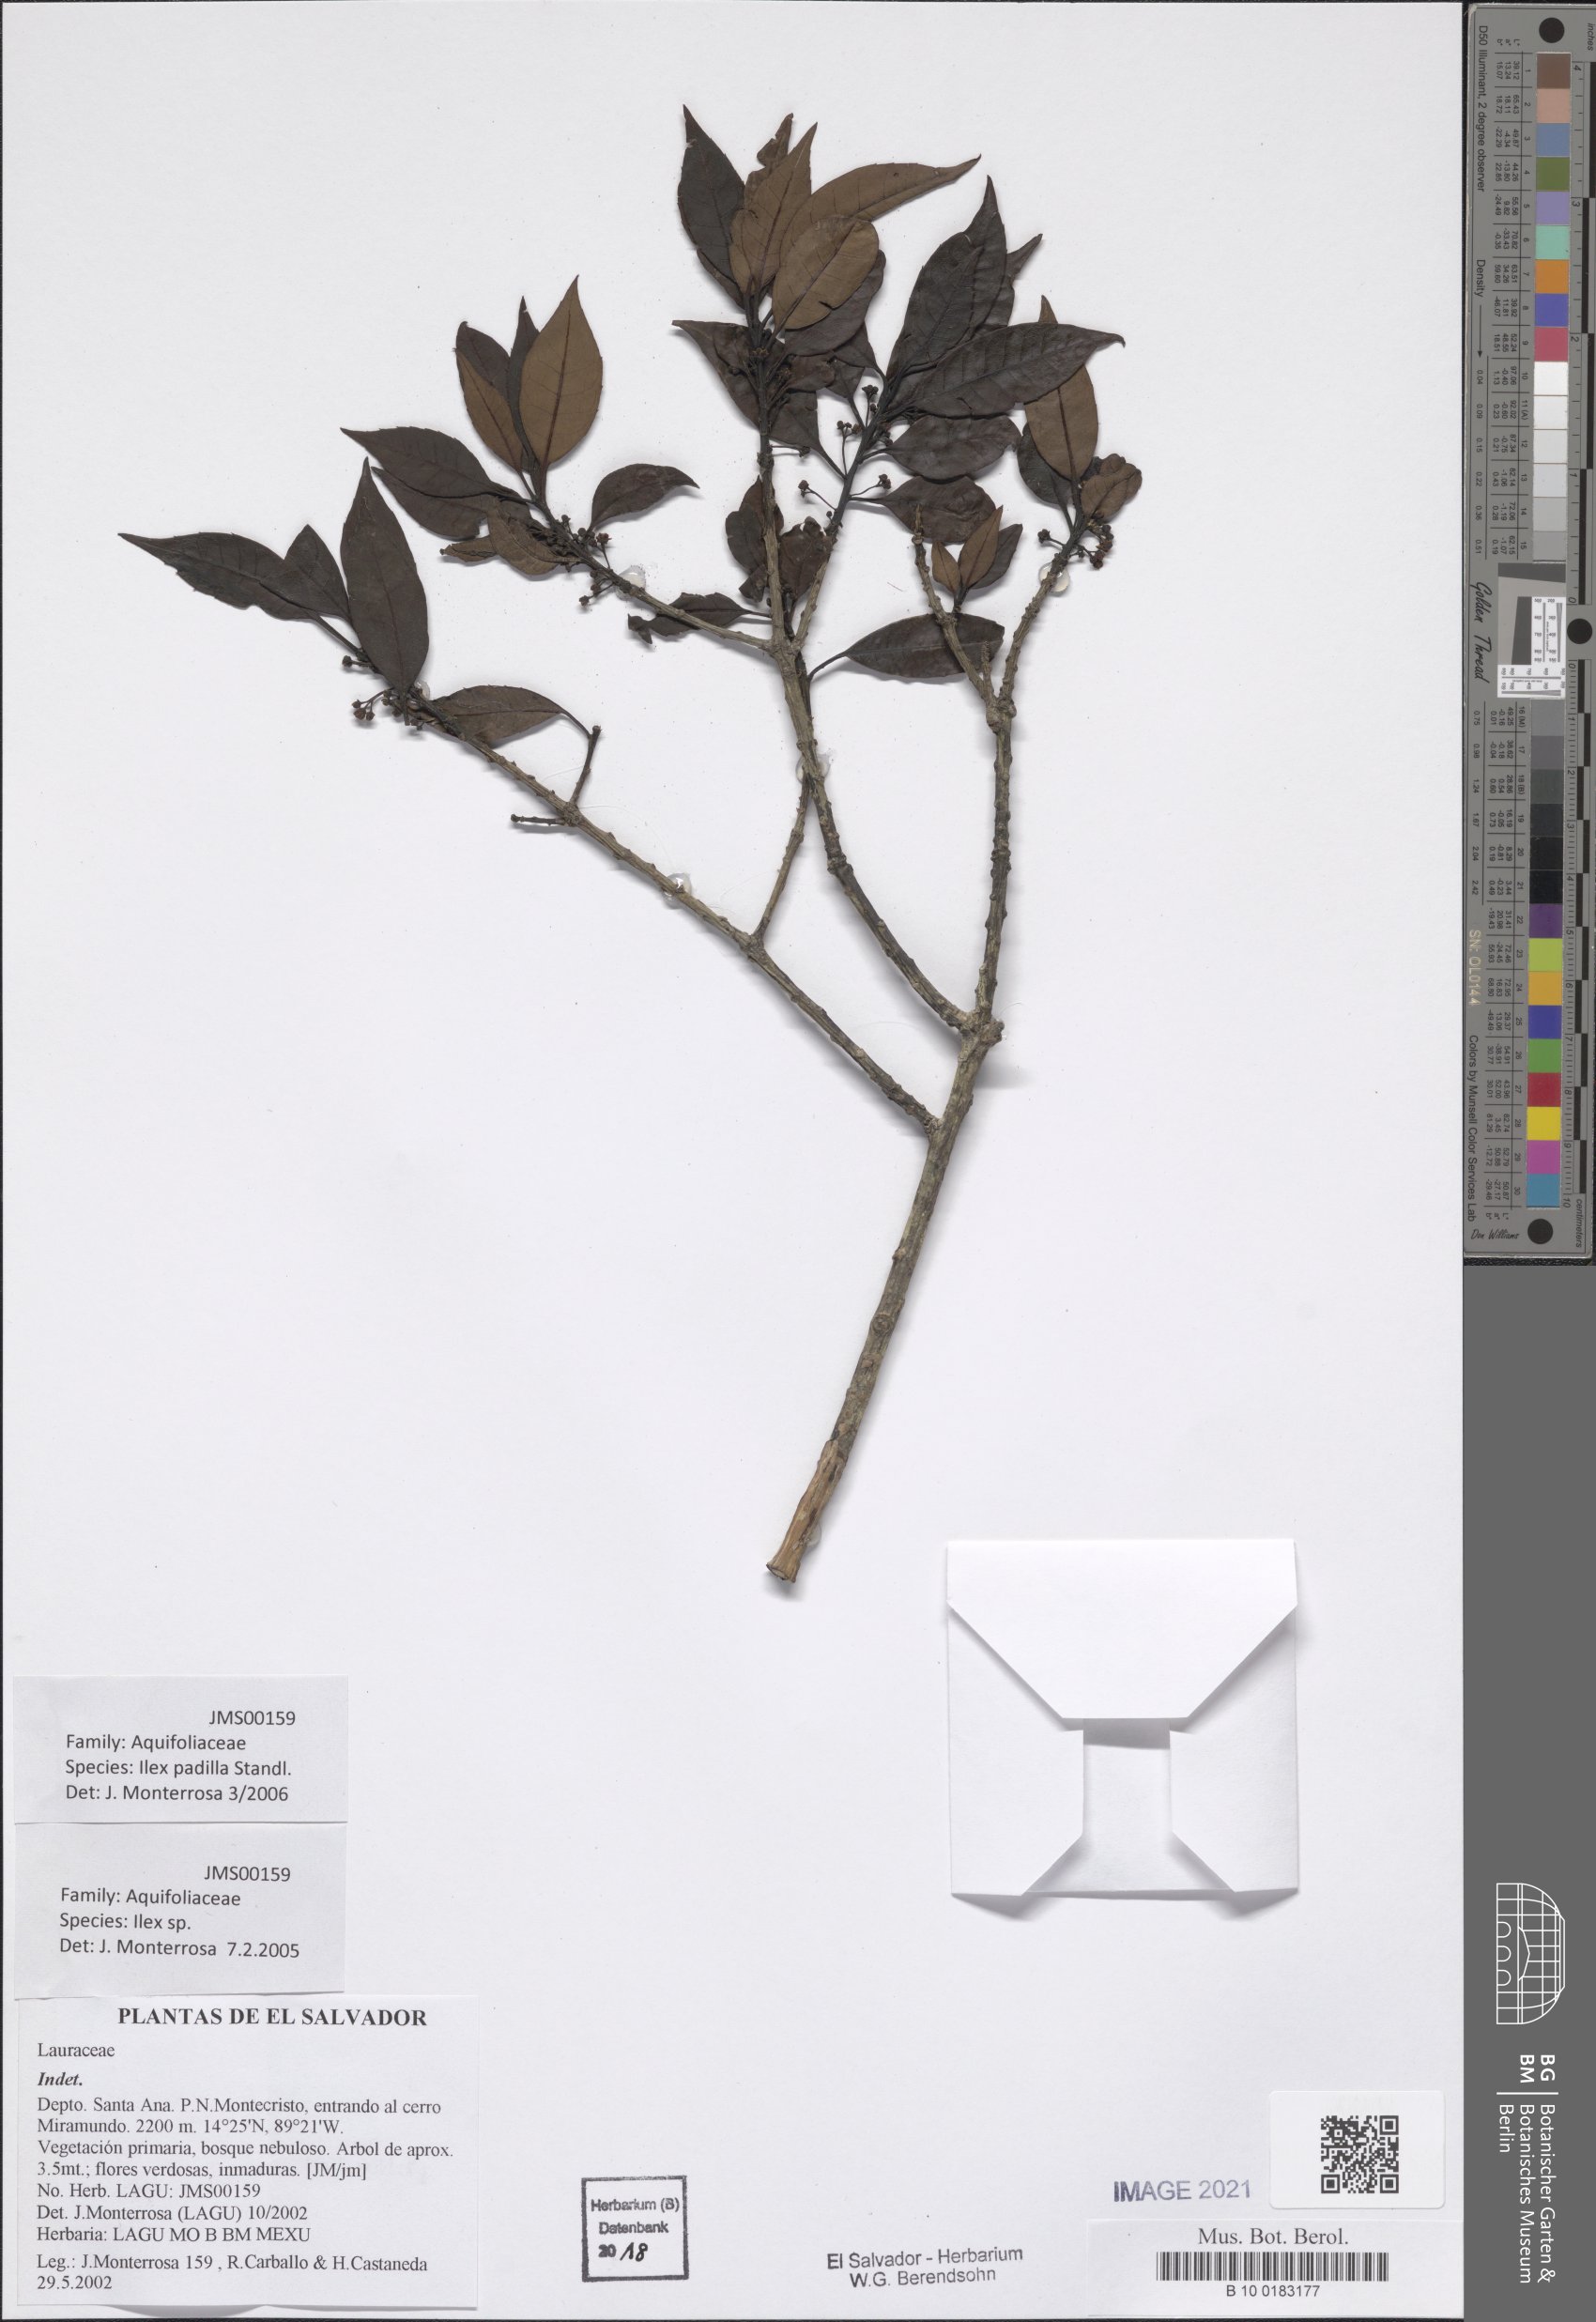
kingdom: Plantae
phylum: Tracheophyta
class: Magnoliopsida
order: Aquifoliales
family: Aquifoliaceae
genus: Ilex
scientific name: Ilex liebmannii
